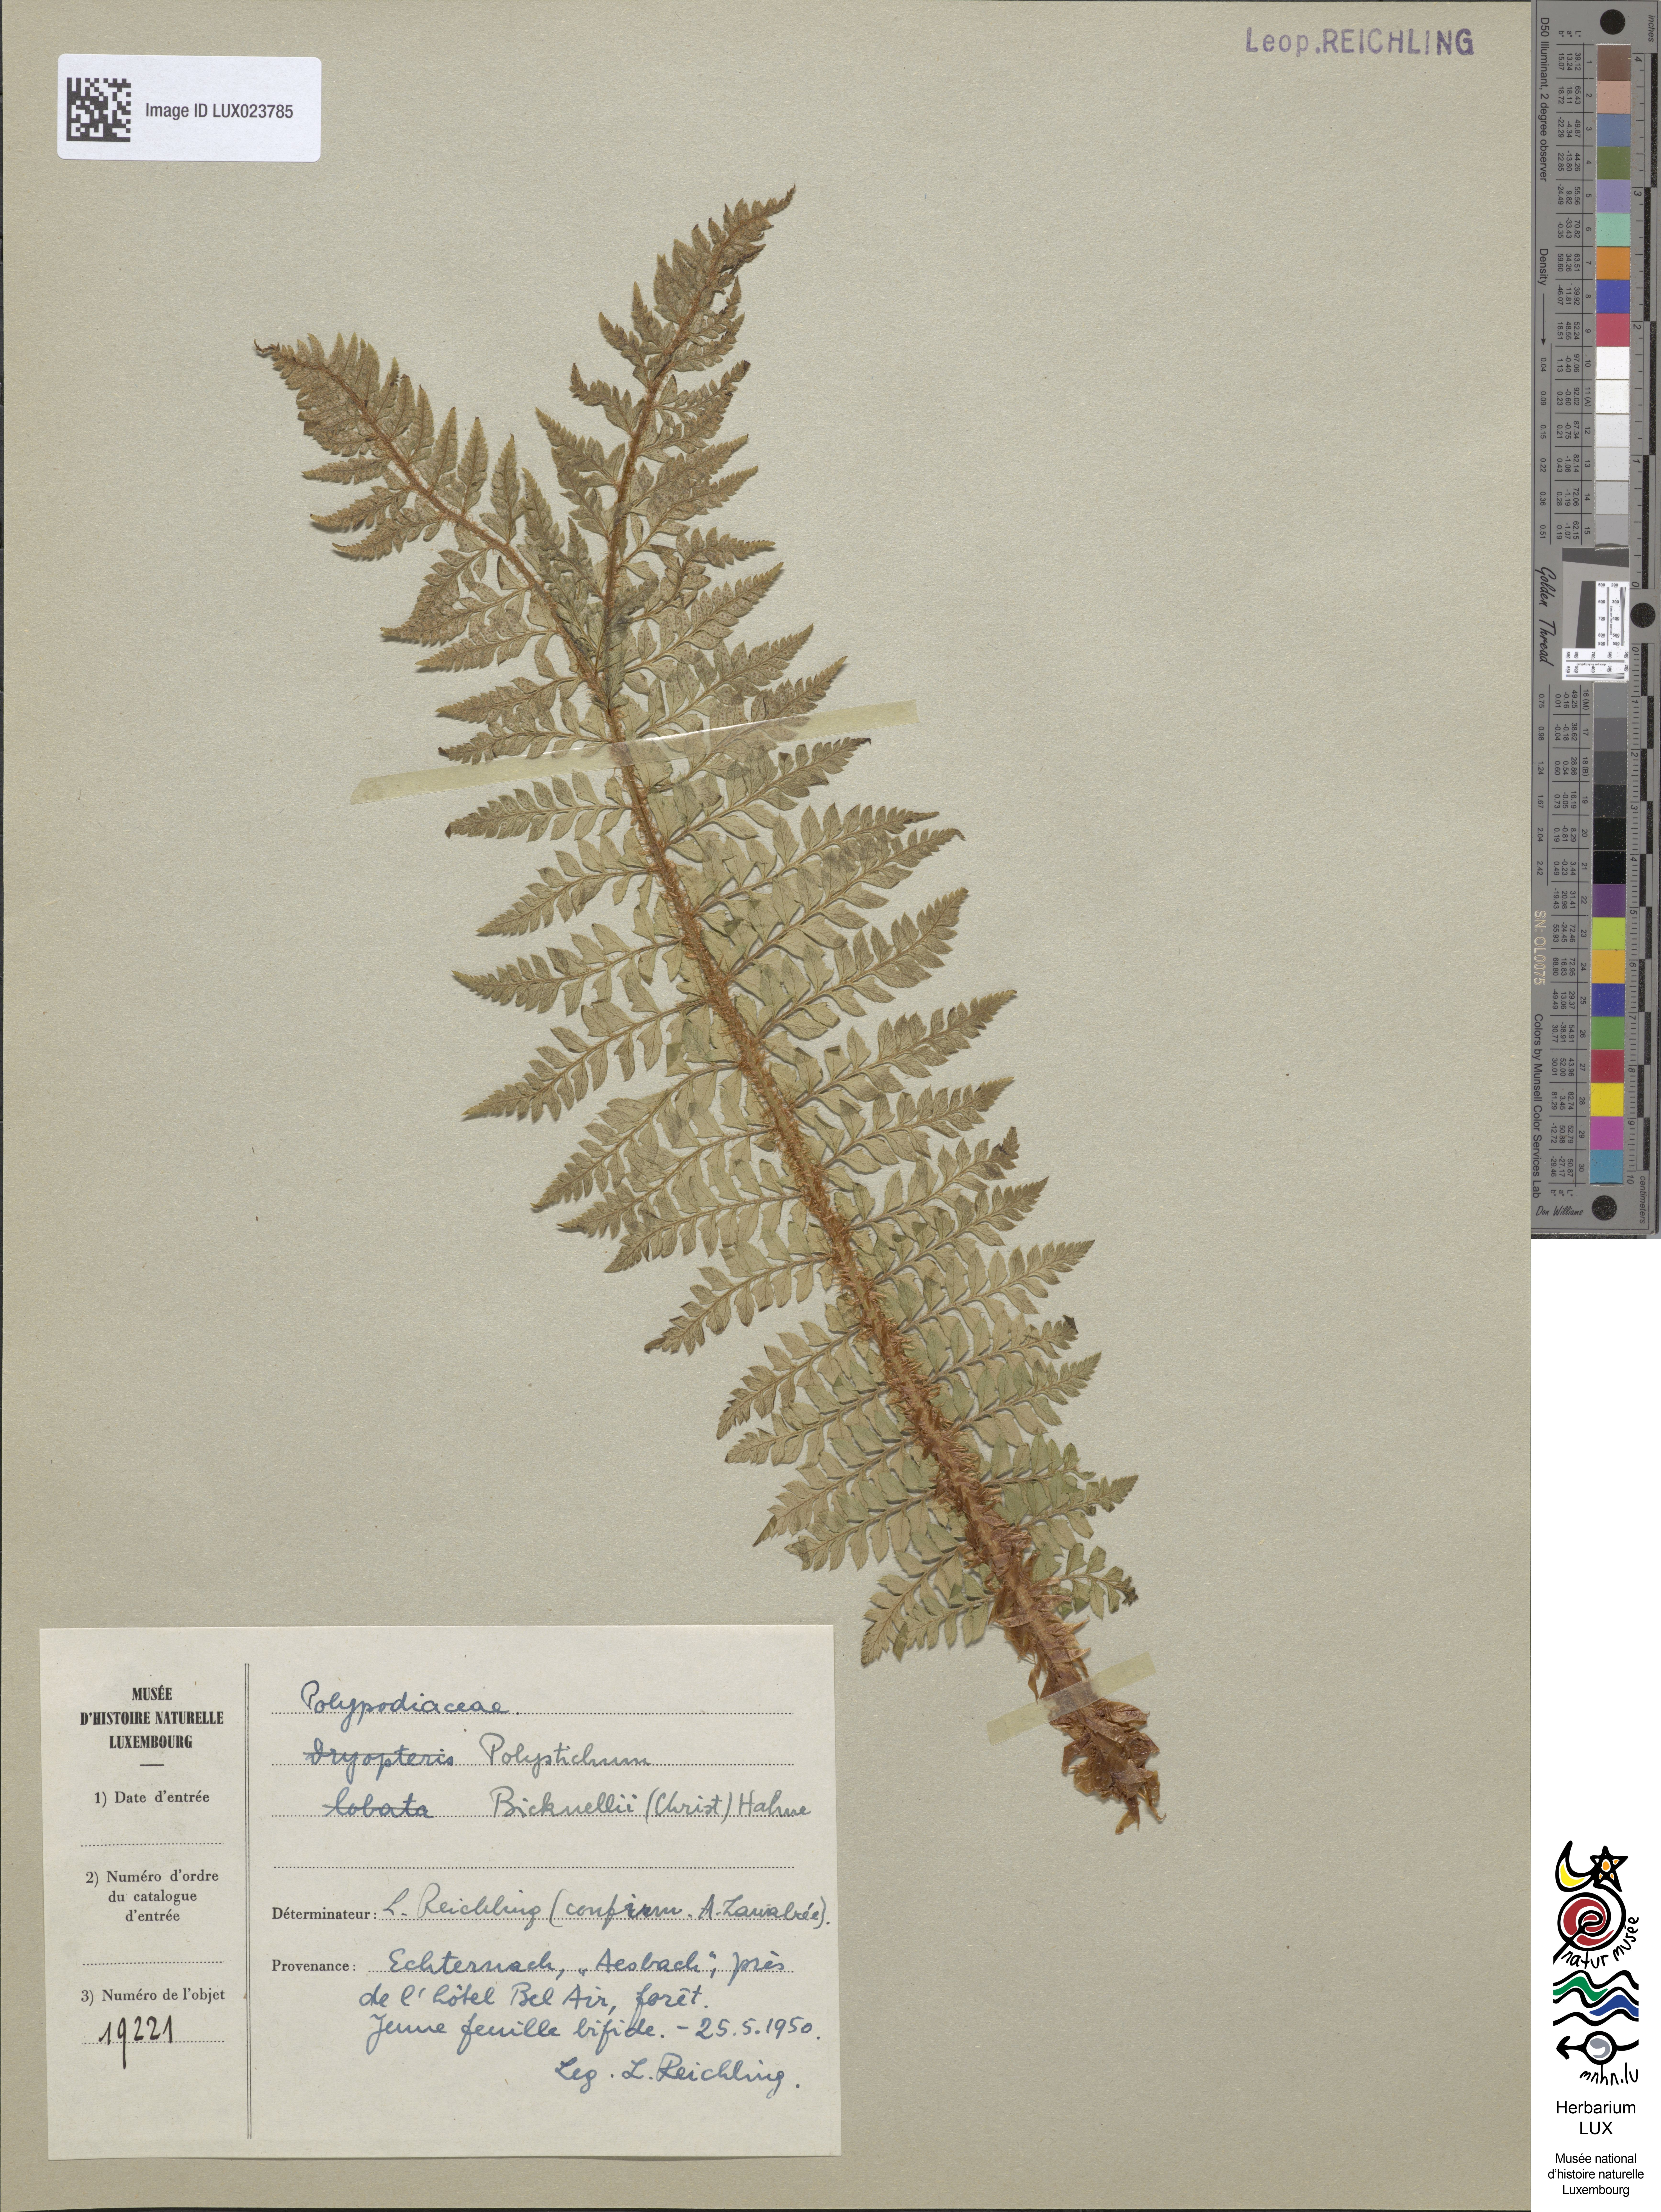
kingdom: Plantae
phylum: Tracheophyta
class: Polypodiopsida
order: Polypodiales
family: Dryopteridaceae
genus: Polystichum
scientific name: Polystichum
